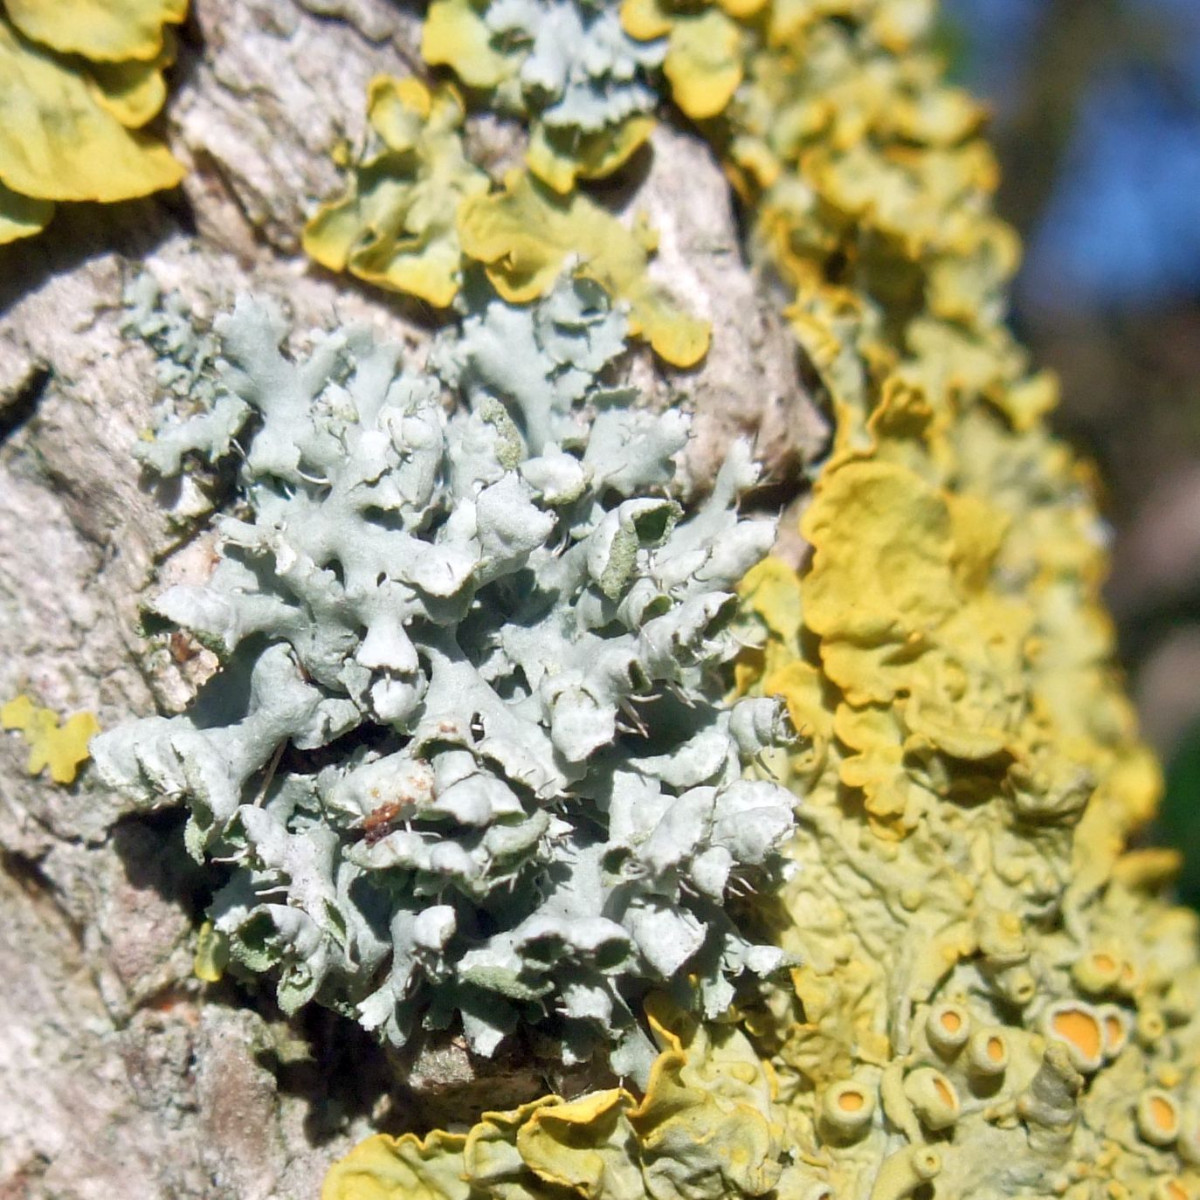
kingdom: Fungi
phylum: Ascomycota
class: Lecanoromycetes
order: Caliciales
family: Physciaceae
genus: Physcia
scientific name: Physcia adscendens
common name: hætte-rosetlav
